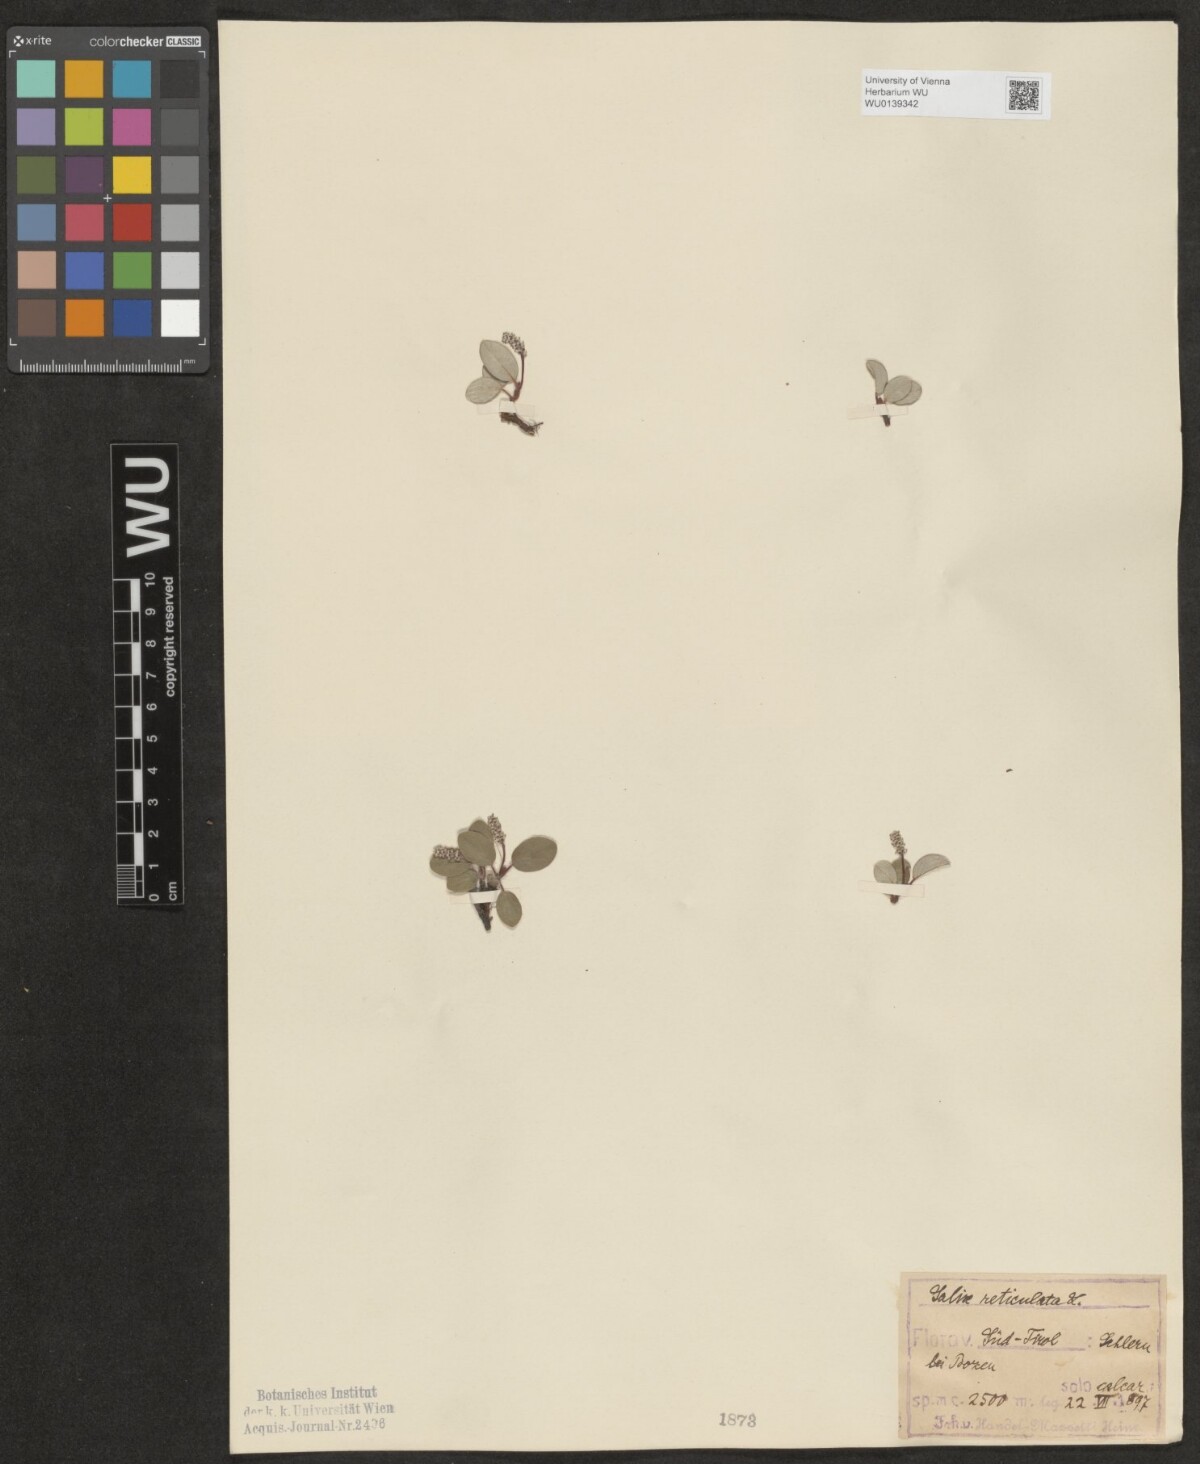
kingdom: Plantae
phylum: Tracheophyta
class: Magnoliopsida
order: Malpighiales
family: Salicaceae
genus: Salix
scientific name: Salix reticulata
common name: Net-leaved willow
